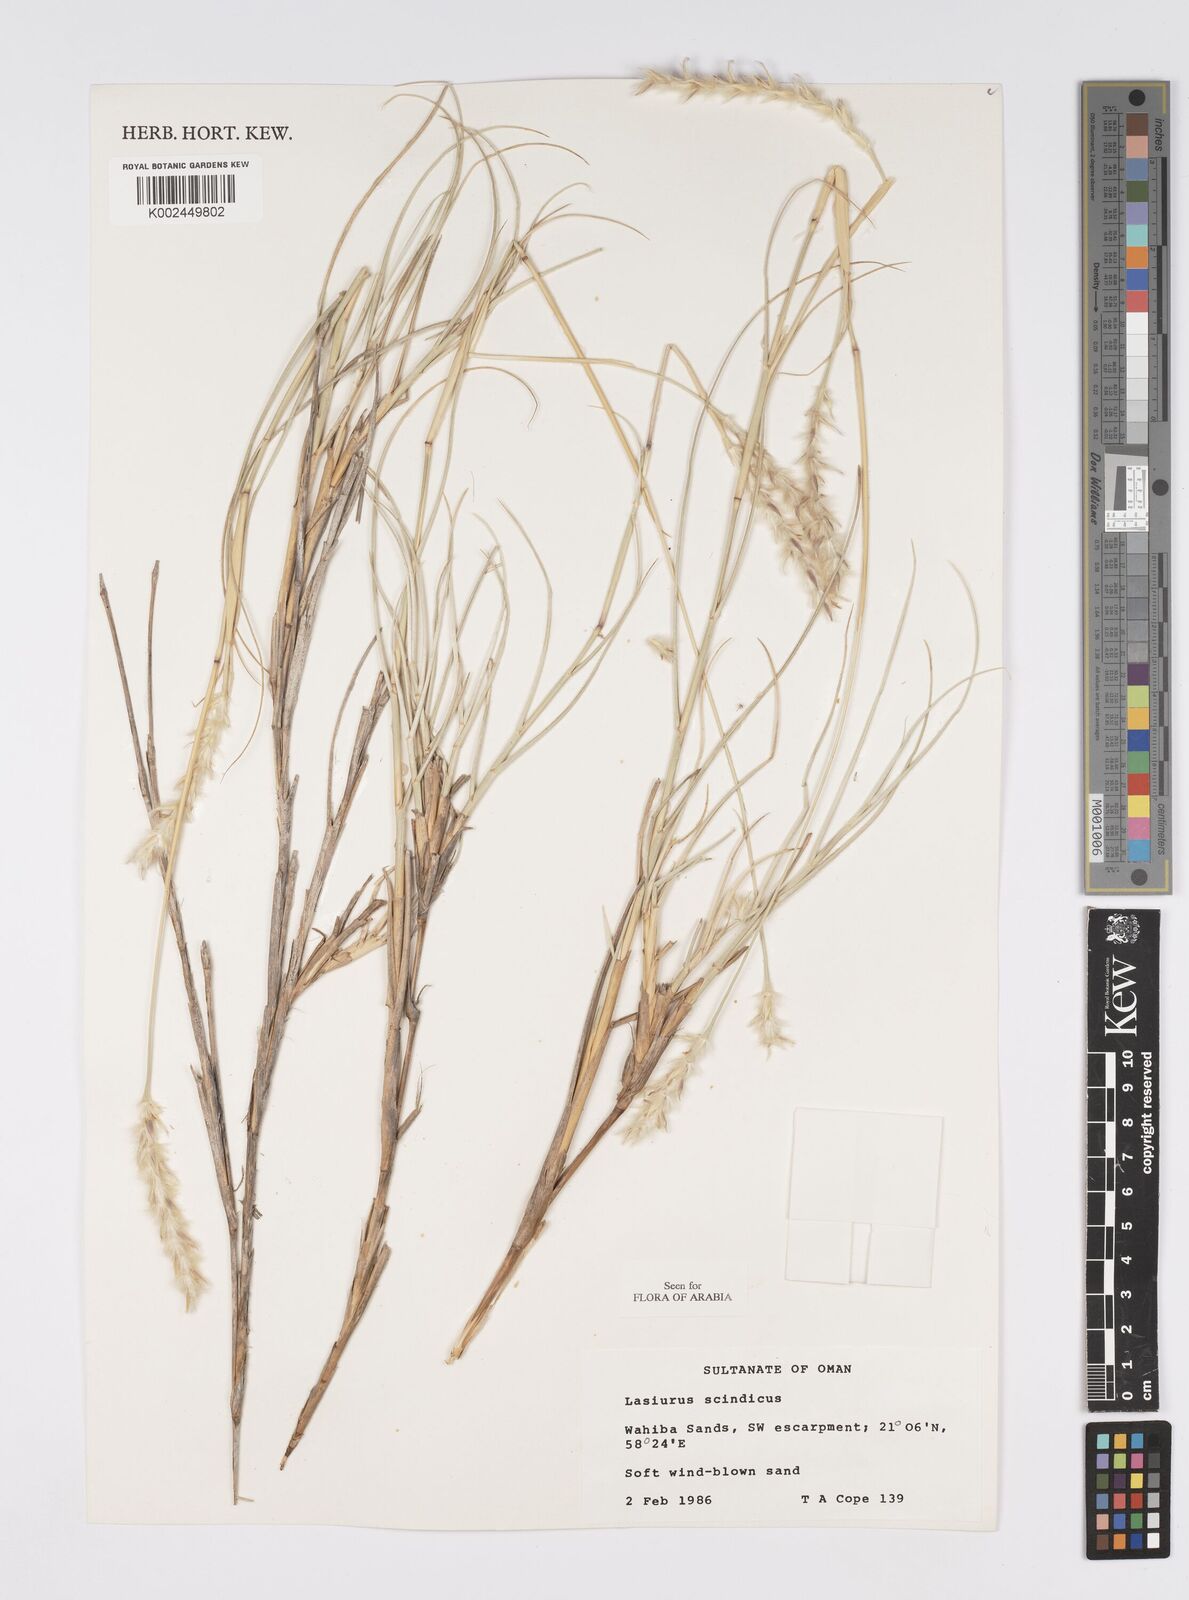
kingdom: Plantae
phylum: Tracheophyta
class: Liliopsida
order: Poales
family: Poaceae
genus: Lasiurus
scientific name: Lasiurus scindicus
